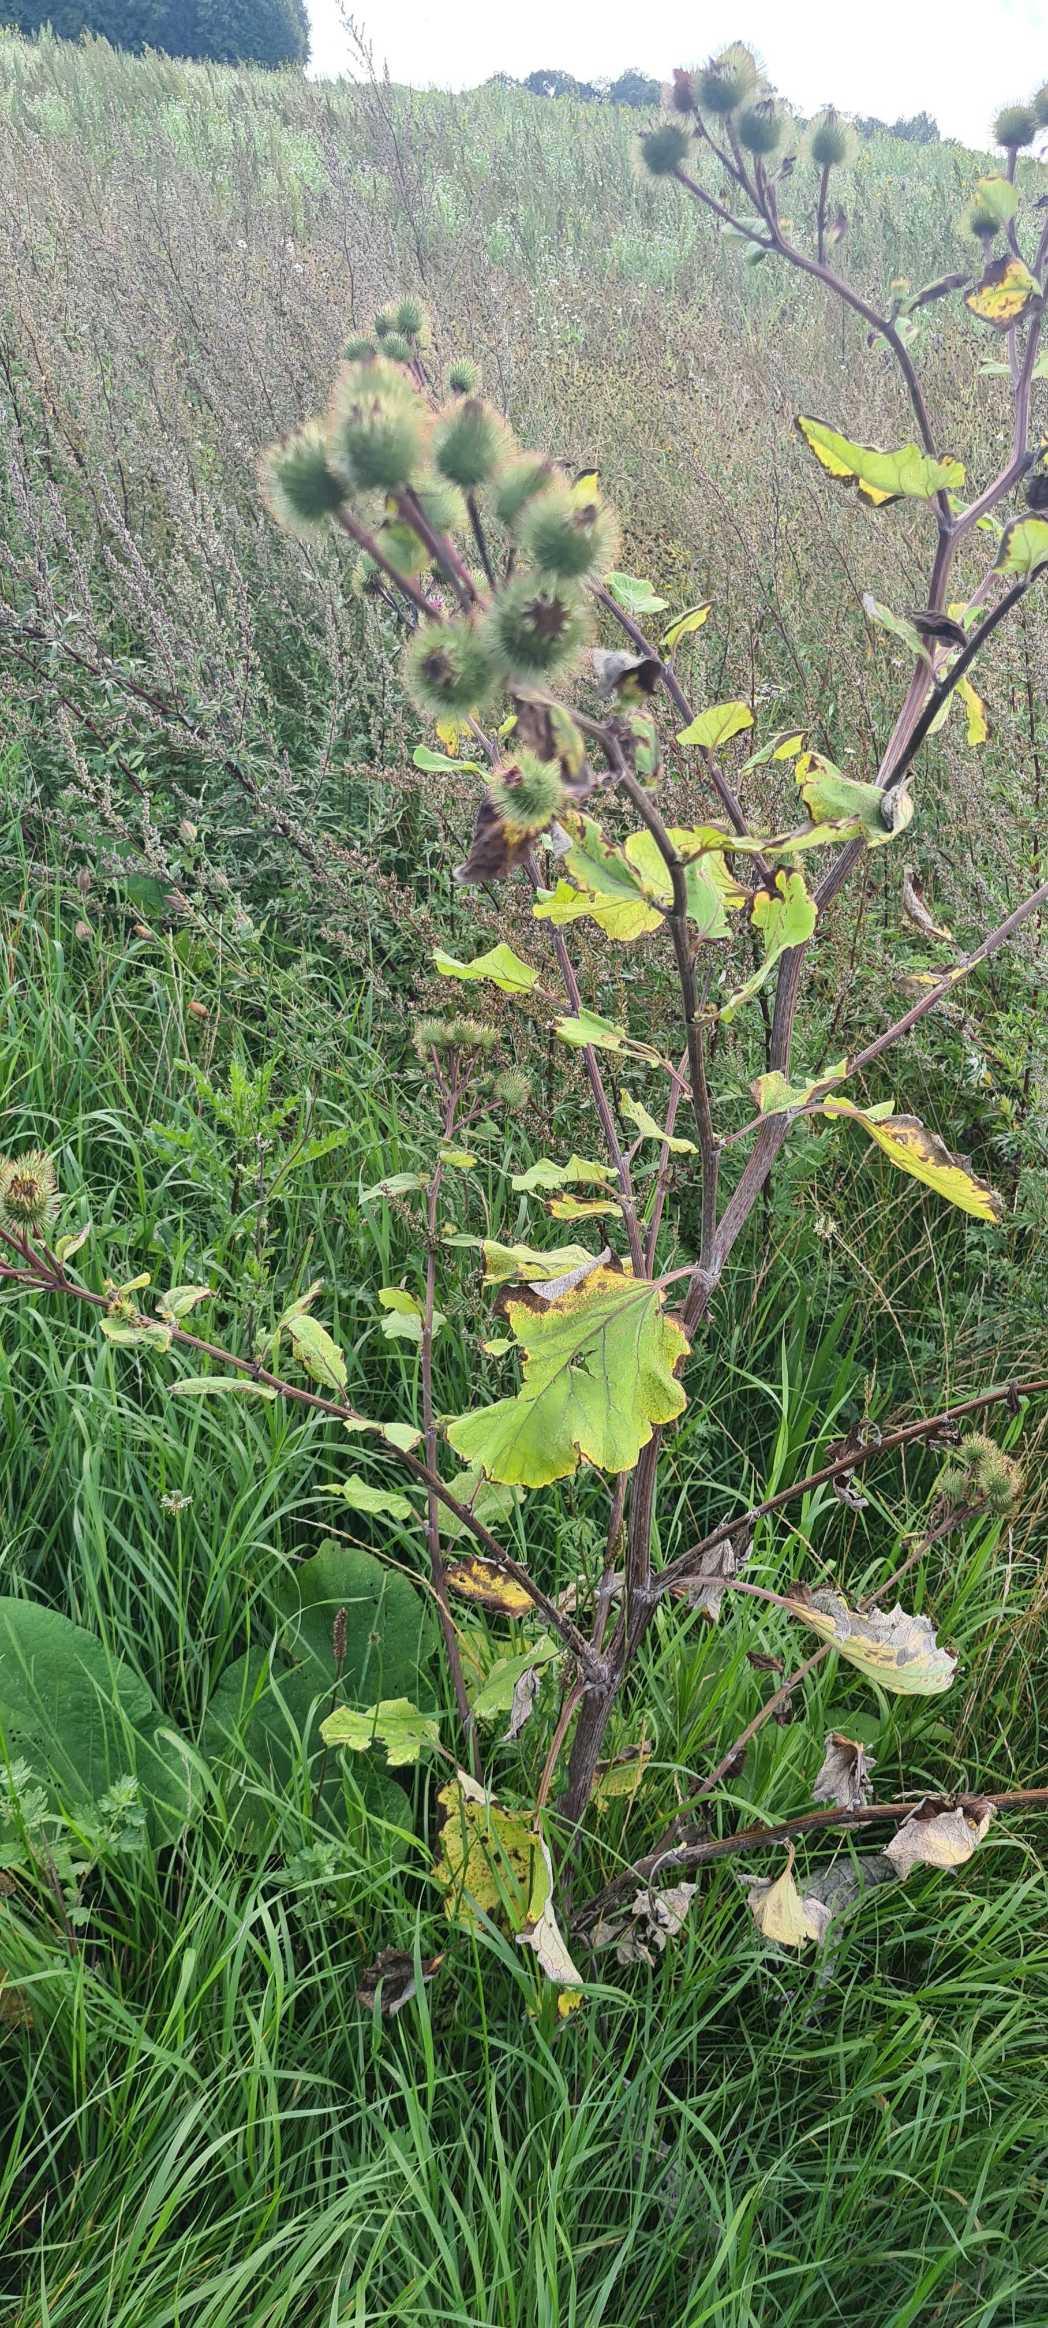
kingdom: Plantae
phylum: Tracheophyta
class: Magnoliopsida
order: Asterales
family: Asteraceae
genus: Arctium
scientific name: Arctium lappa
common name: Glat burre
